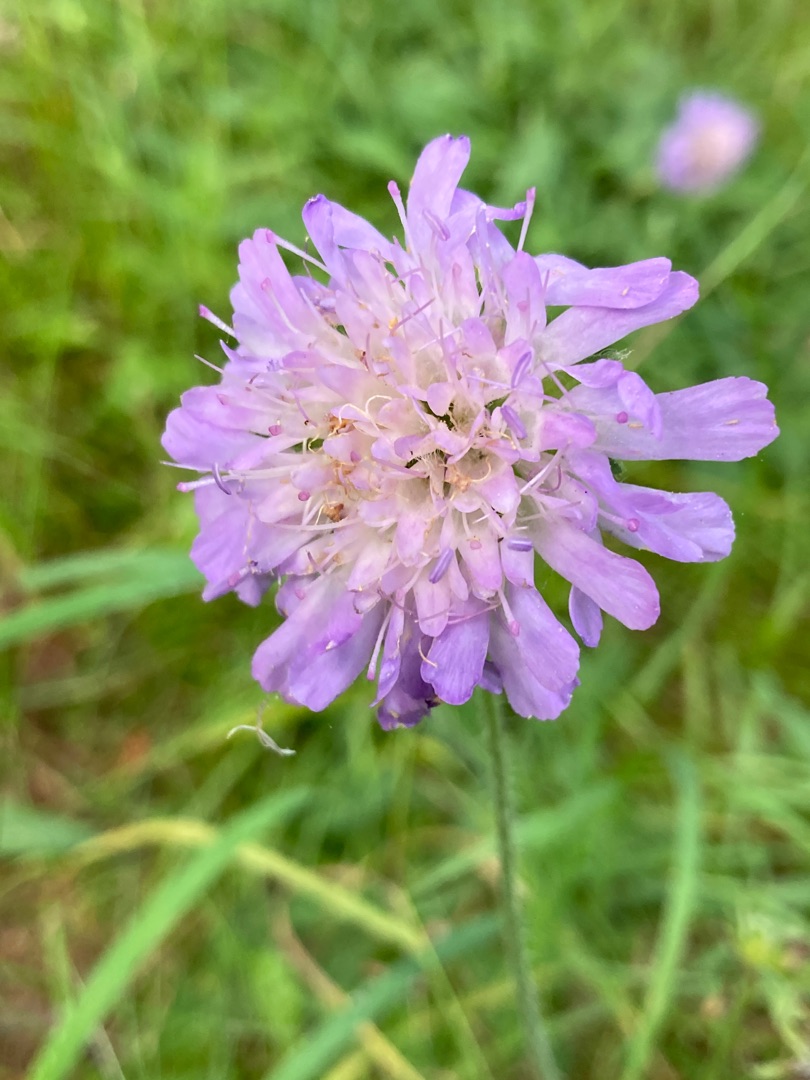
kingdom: Plantae
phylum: Tracheophyta
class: Magnoliopsida
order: Dipsacales
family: Caprifoliaceae
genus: Knautia
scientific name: Knautia arvensis
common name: Blåhat
